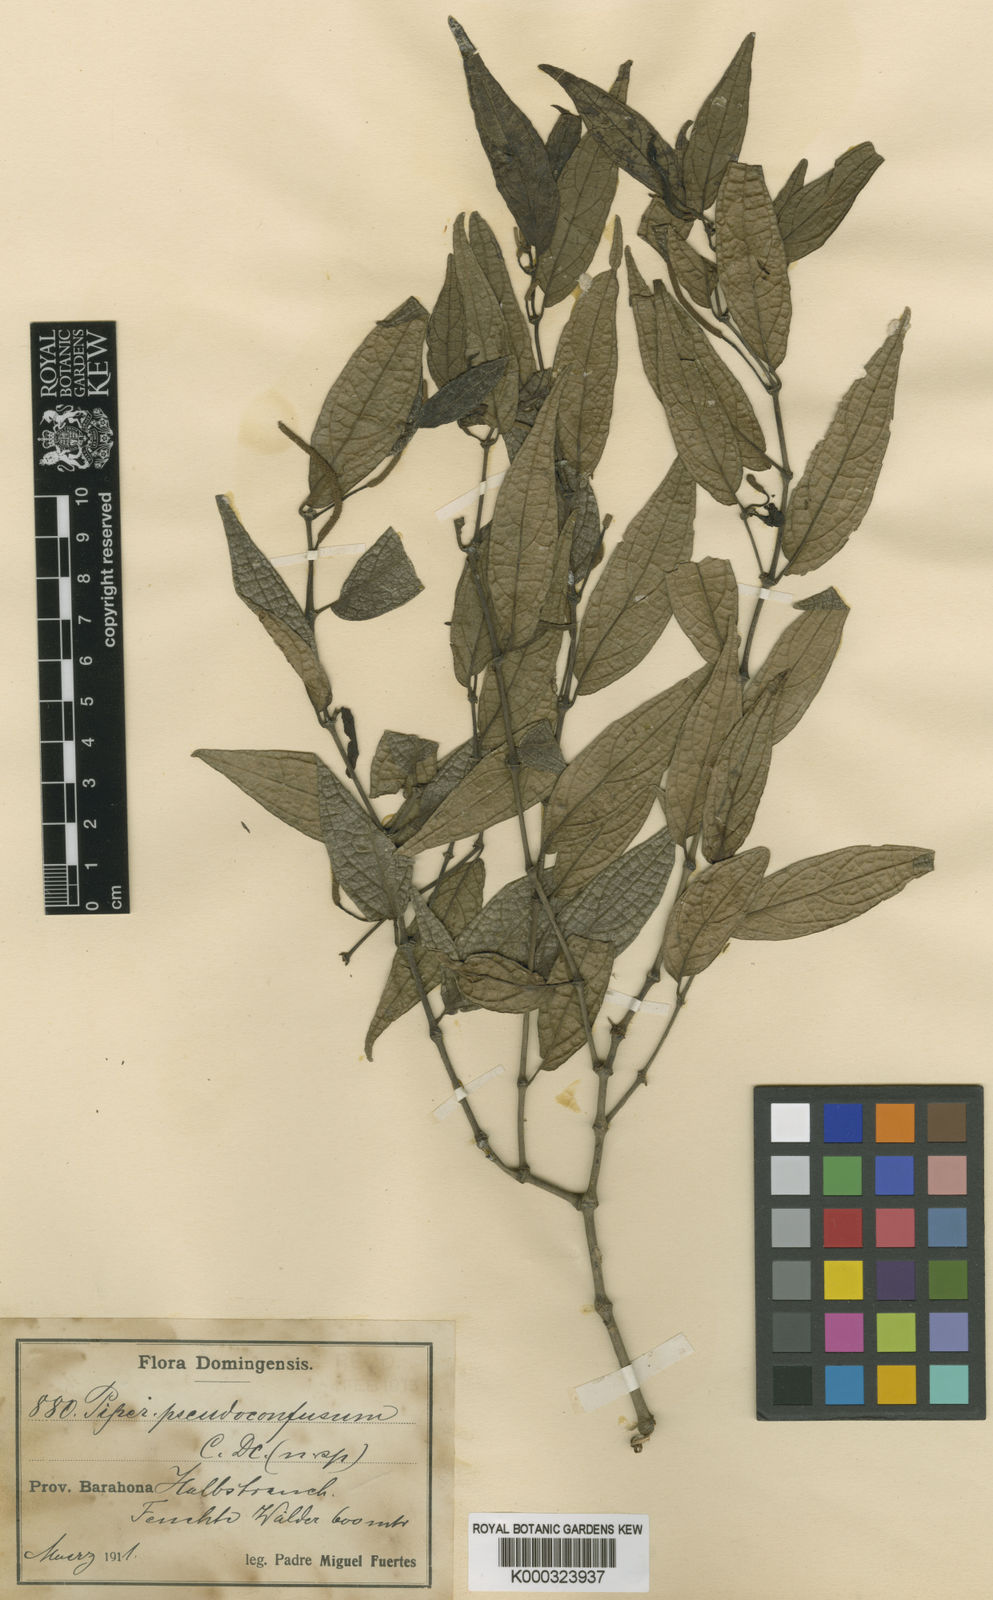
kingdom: Plantae
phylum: Tracheophyta
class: Magnoliopsida
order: Piperales
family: Piperaceae
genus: Piper
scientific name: Piper confusum
